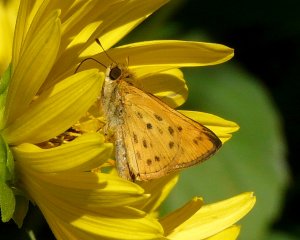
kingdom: Animalia
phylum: Arthropoda
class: Insecta
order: Lepidoptera
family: Hesperiidae
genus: Hylephila
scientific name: Hylephila phyleus
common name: Fiery Skipper
